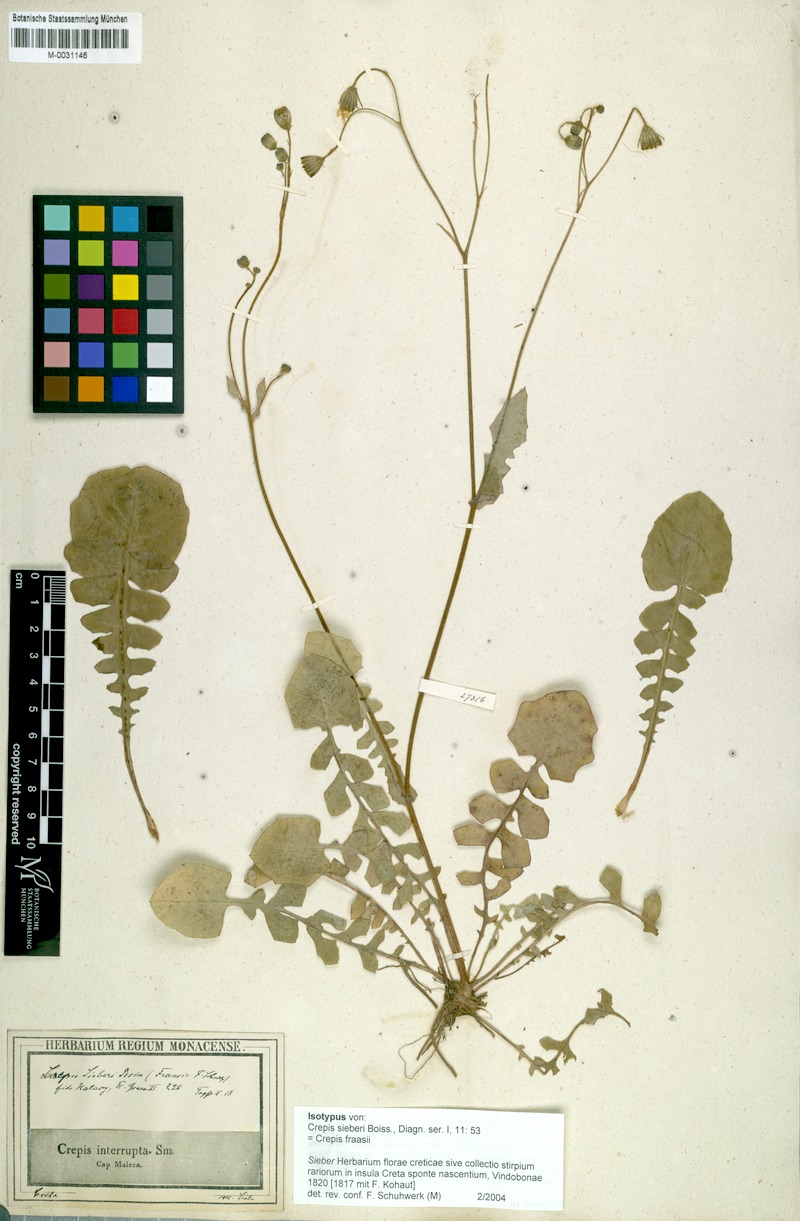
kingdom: Plantae
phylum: Tracheophyta
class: Magnoliopsida
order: Asterales
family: Asteraceae
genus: Crepis
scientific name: Crepis fraasii
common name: Hawk's-beard
